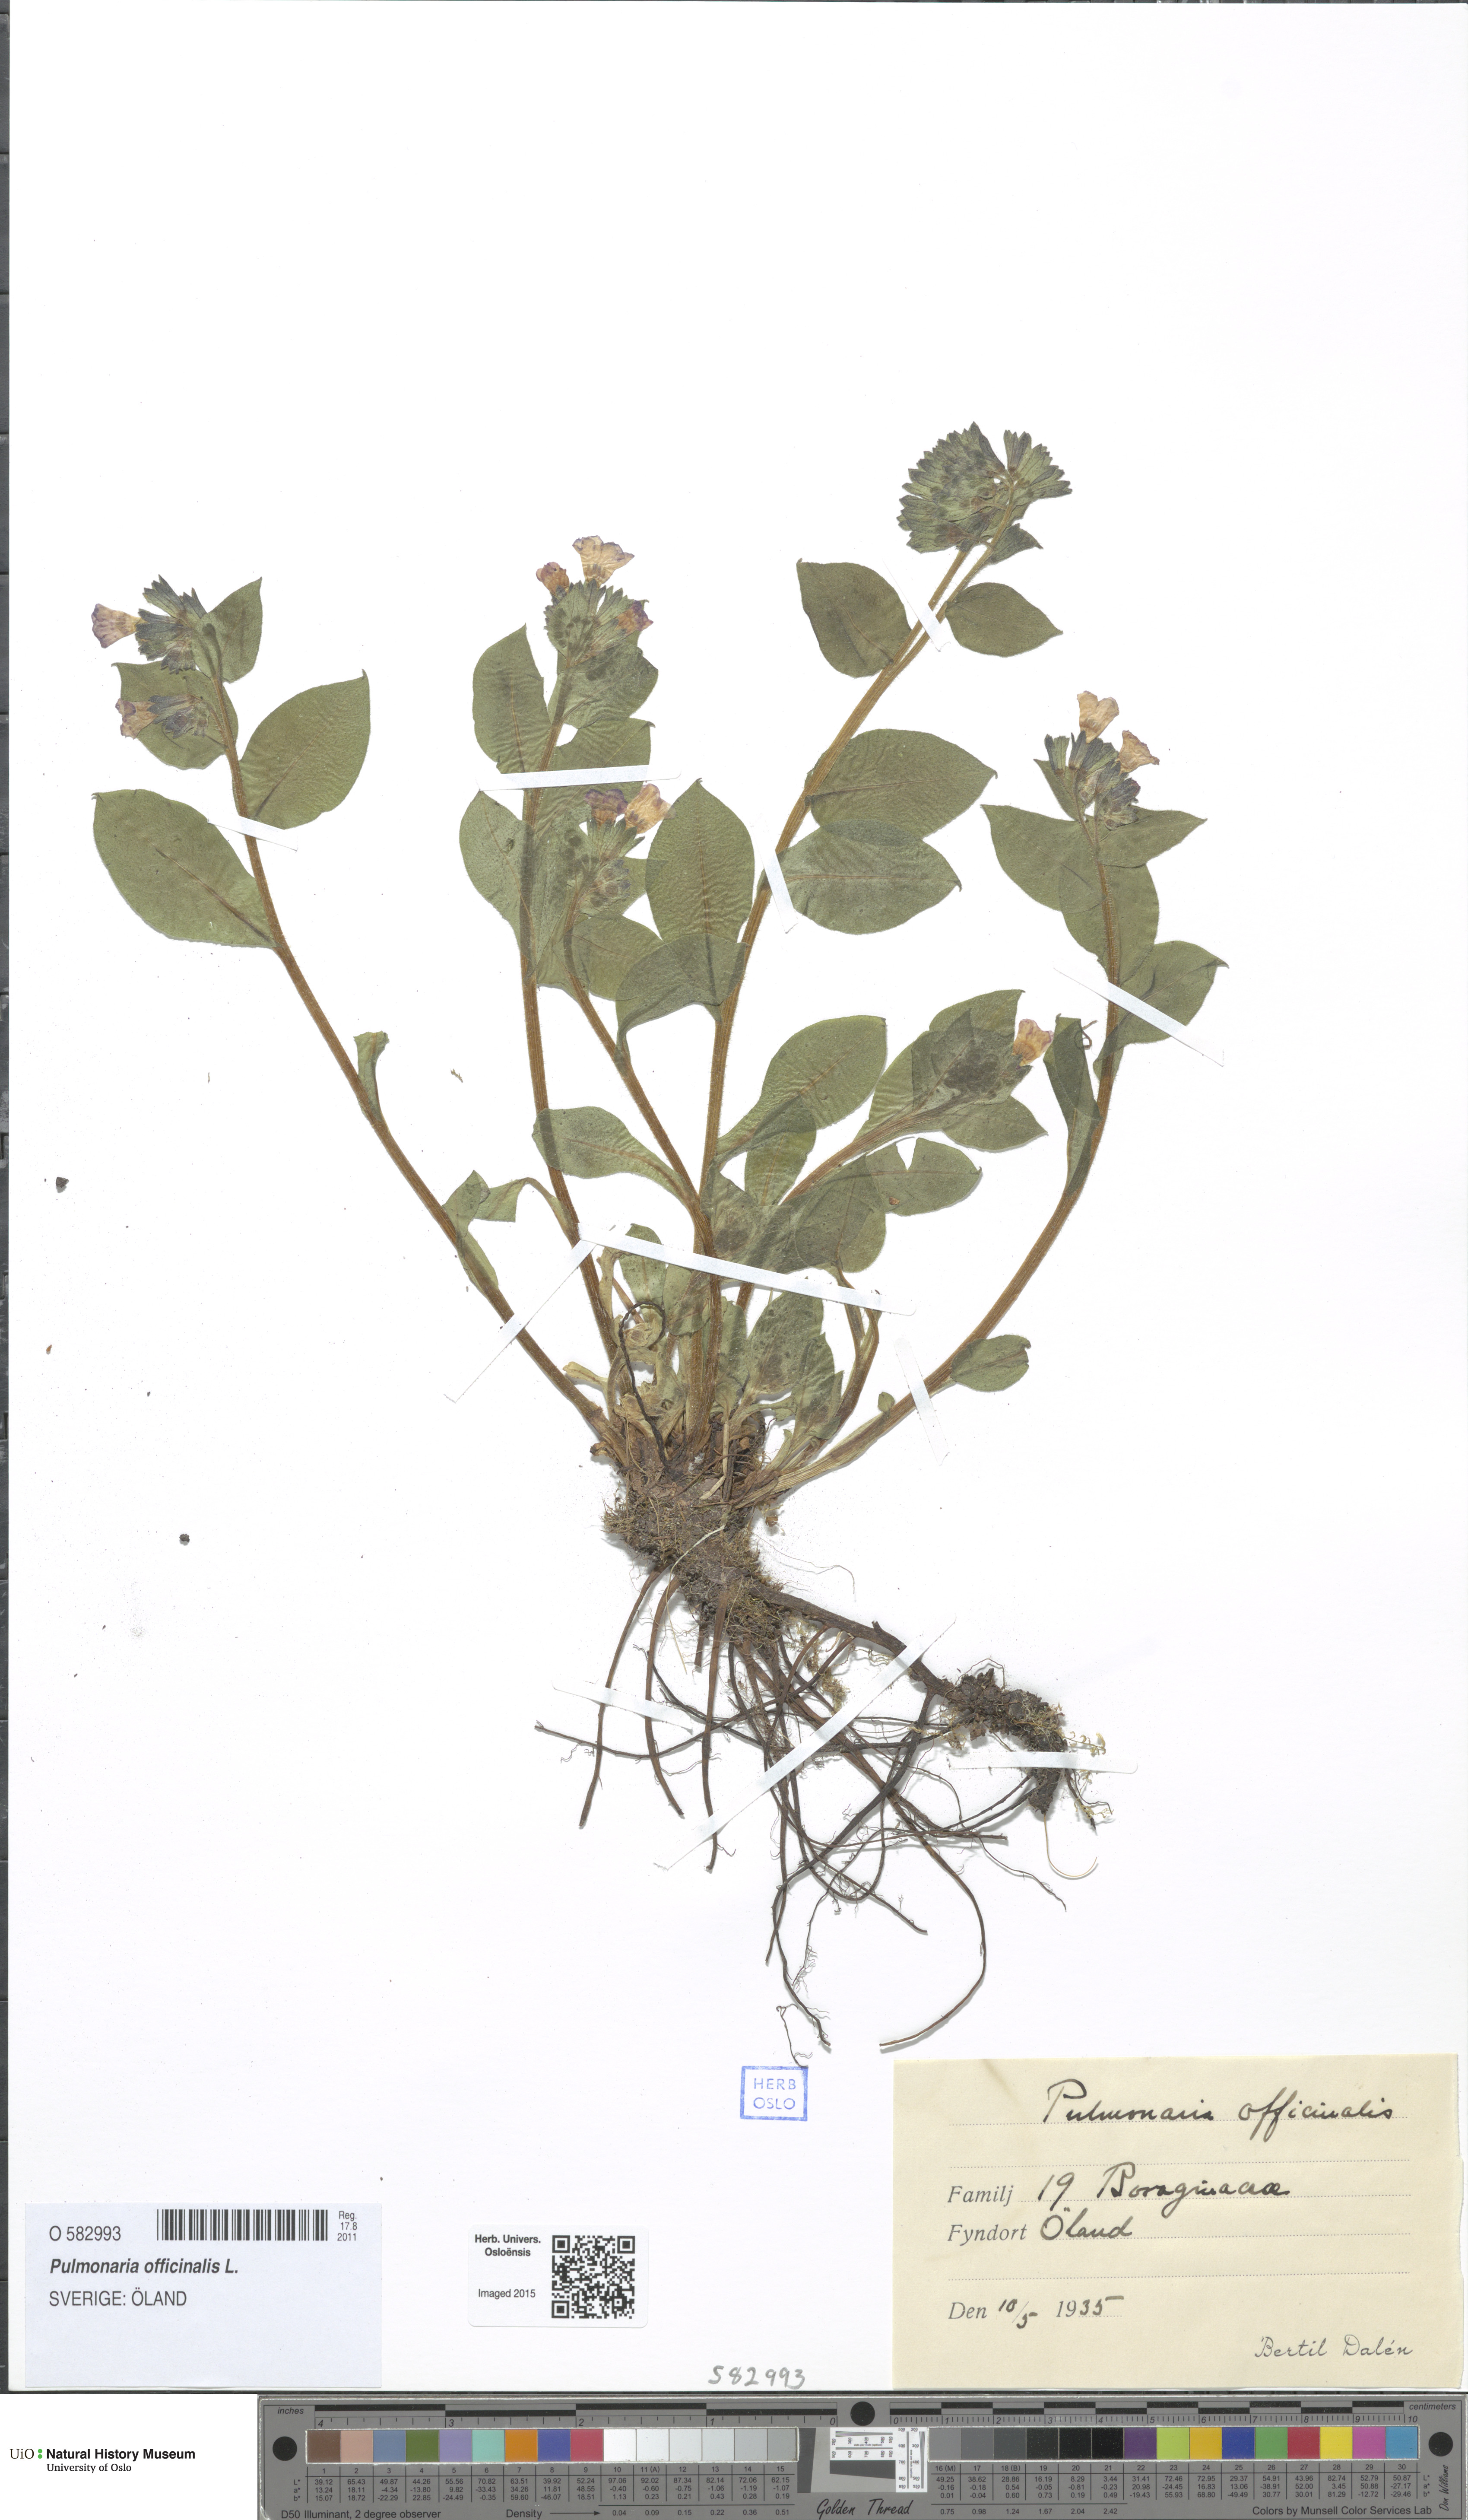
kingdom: Plantae
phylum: Tracheophyta
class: Magnoliopsida
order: Boraginales
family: Boraginaceae
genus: Pulmonaria
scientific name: Pulmonaria officinalis
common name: Lungwort
